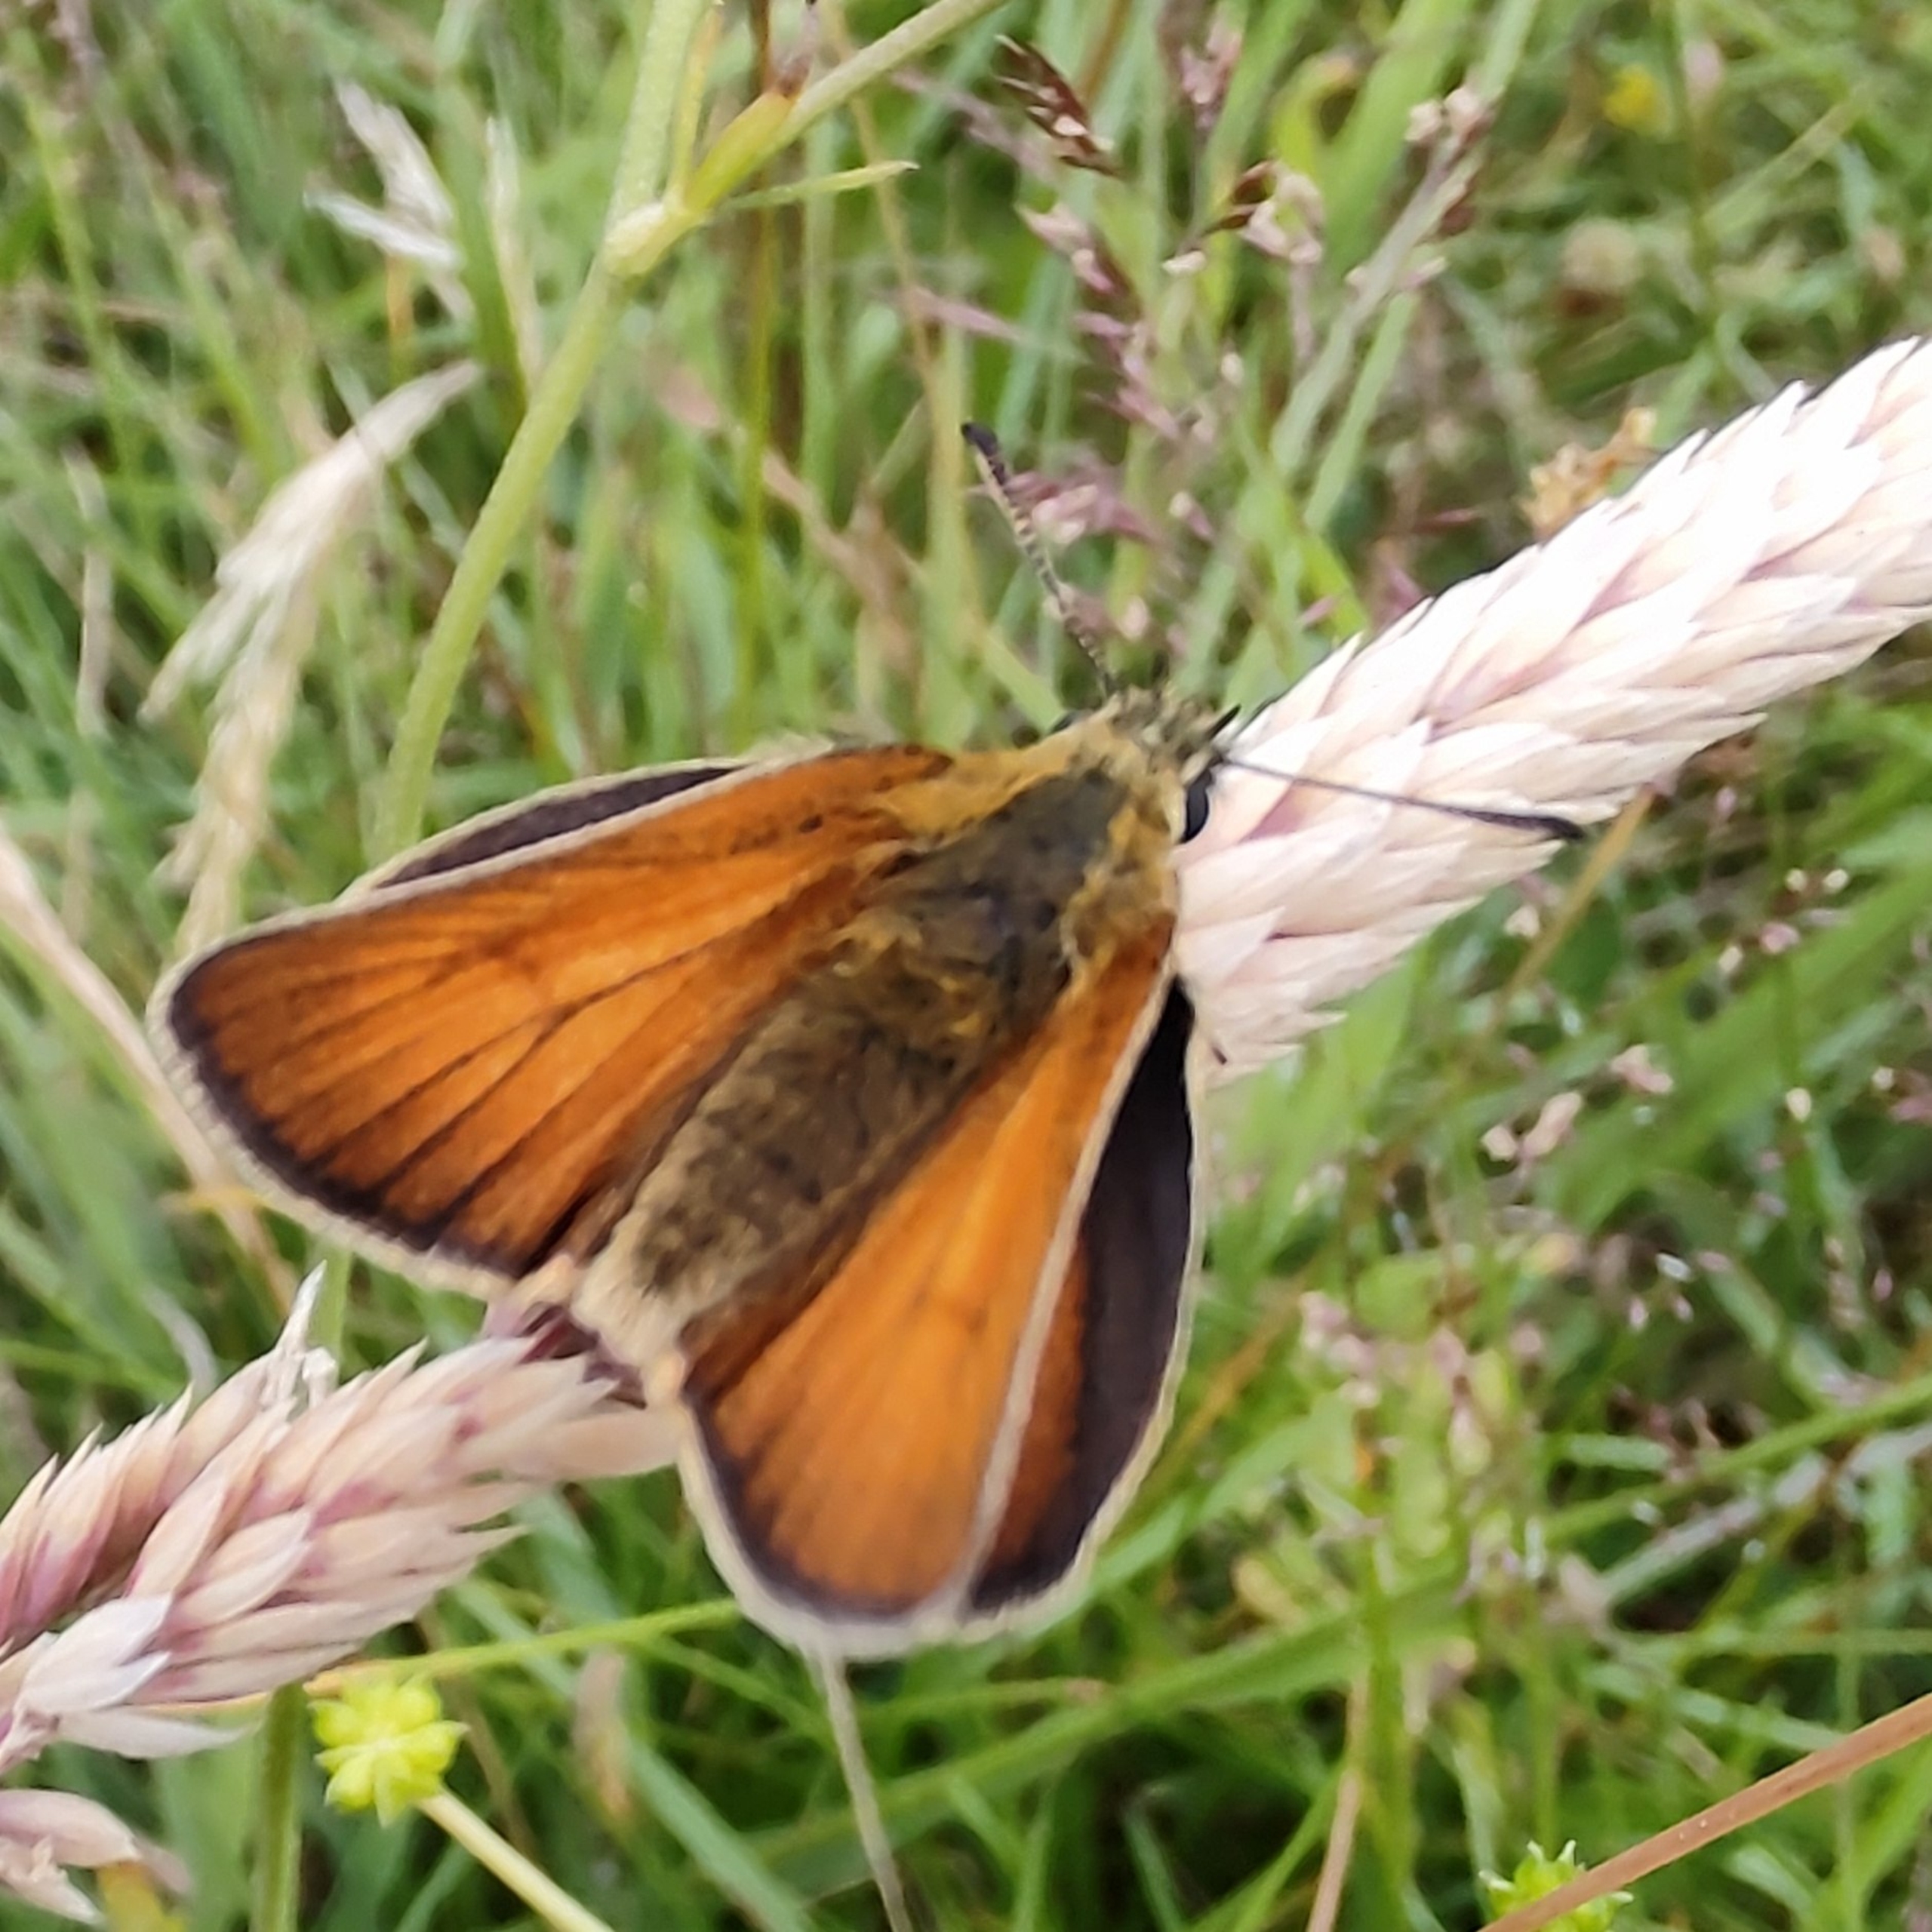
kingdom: Animalia
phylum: Arthropoda
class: Insecta
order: Lepidoptera
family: Hesperiidae
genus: Thymelicus
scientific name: Thymelicus lineola
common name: Stregbredpande
